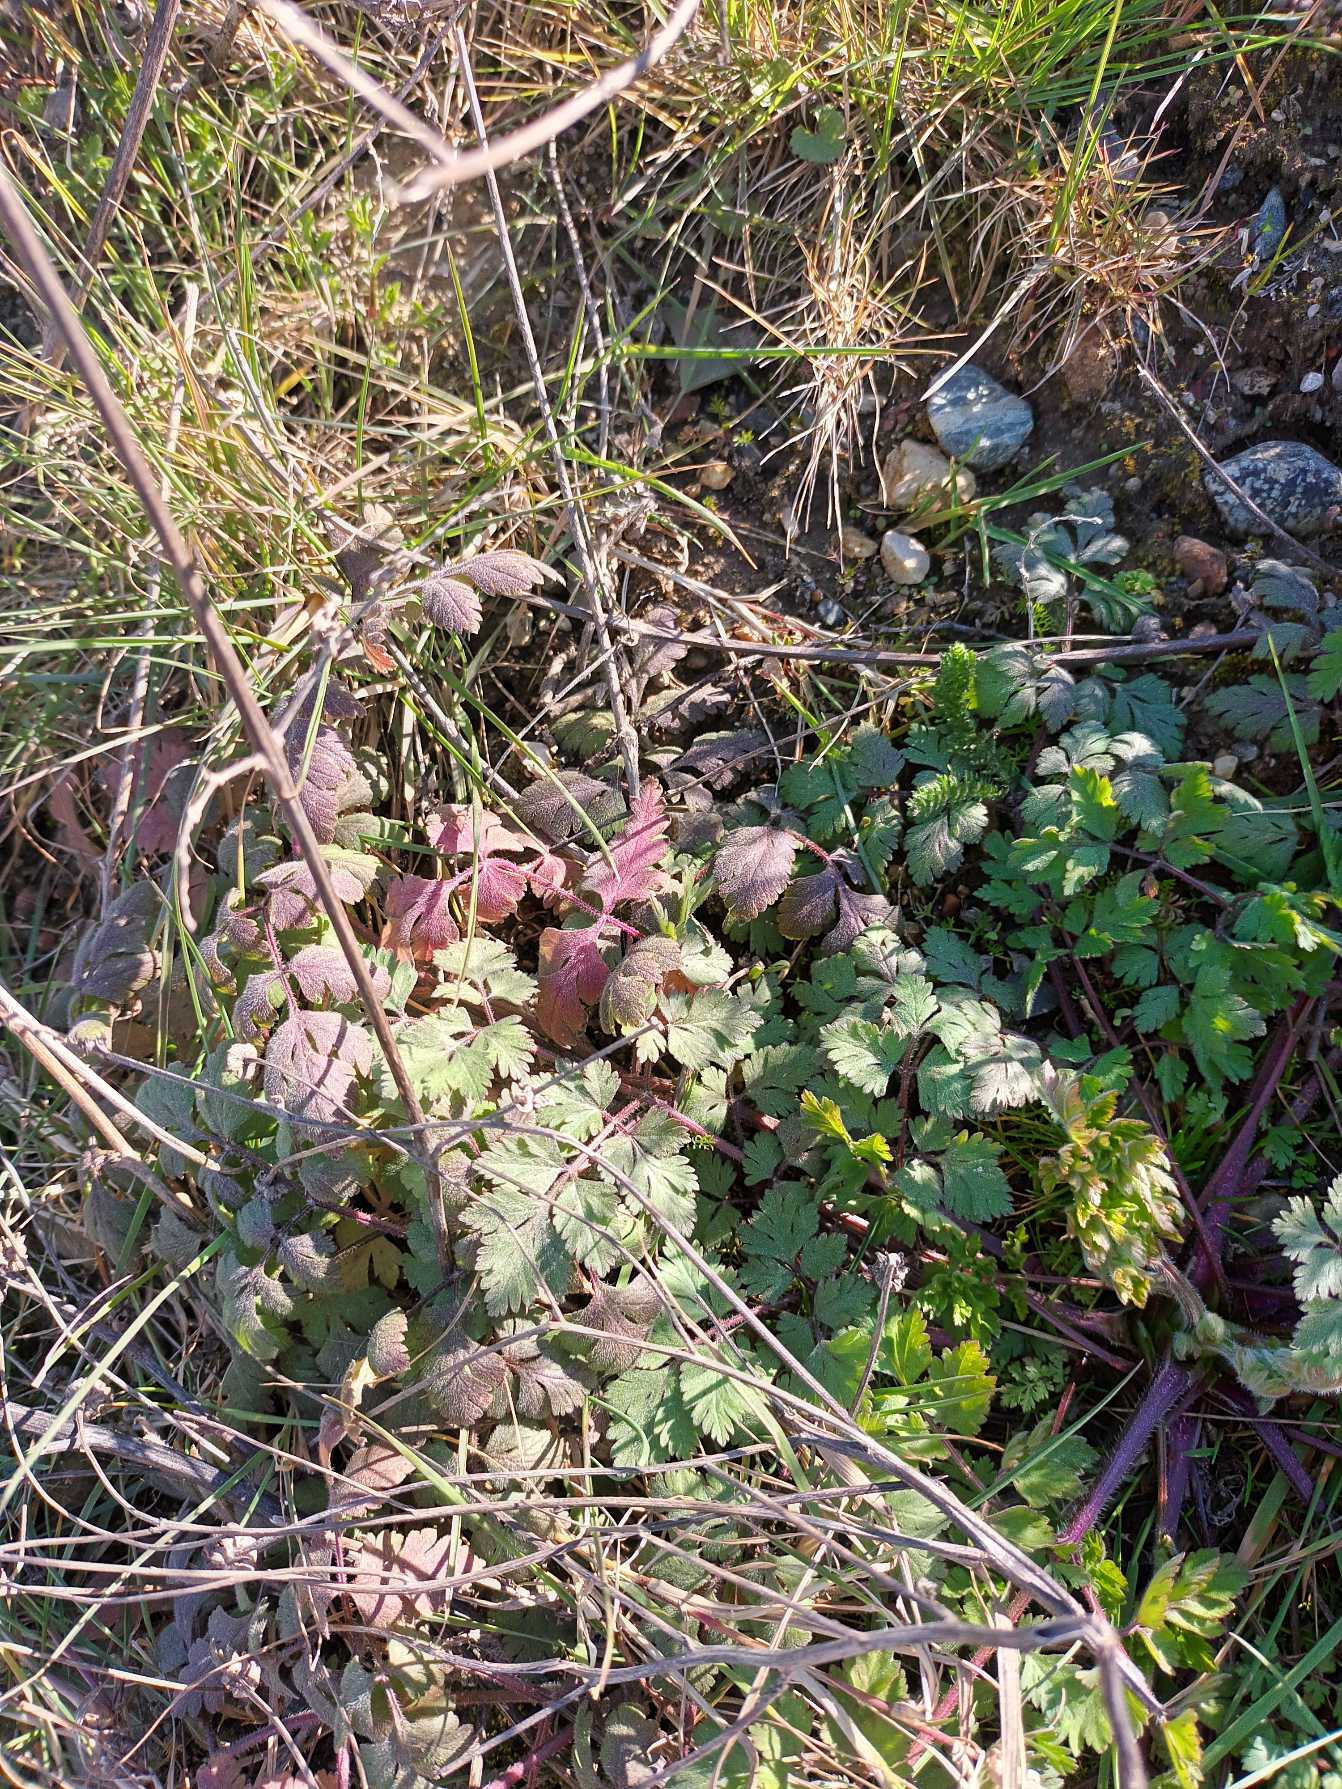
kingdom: Plantae
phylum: Tracheophyta
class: Magnoliopsida
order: Apiales
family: Apiaceae
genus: Chaerophyllum
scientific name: Chaerophyllum temulum
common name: Almindelig hulsvøb
